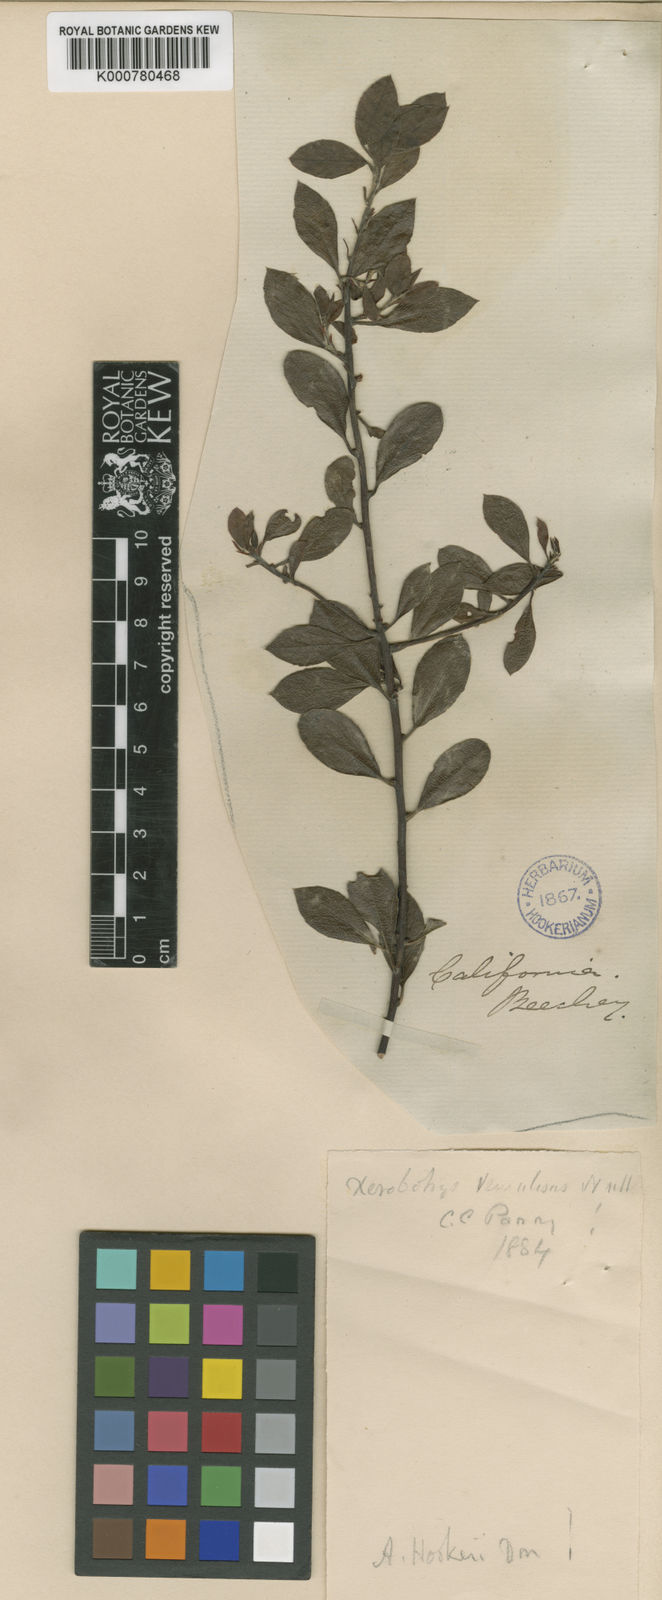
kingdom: Plantae
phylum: Tracheophyta
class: Magnoliopsida
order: Ericales
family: Ericaceae
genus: Arctostaphylos
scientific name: Arctostaphylos hookeri
